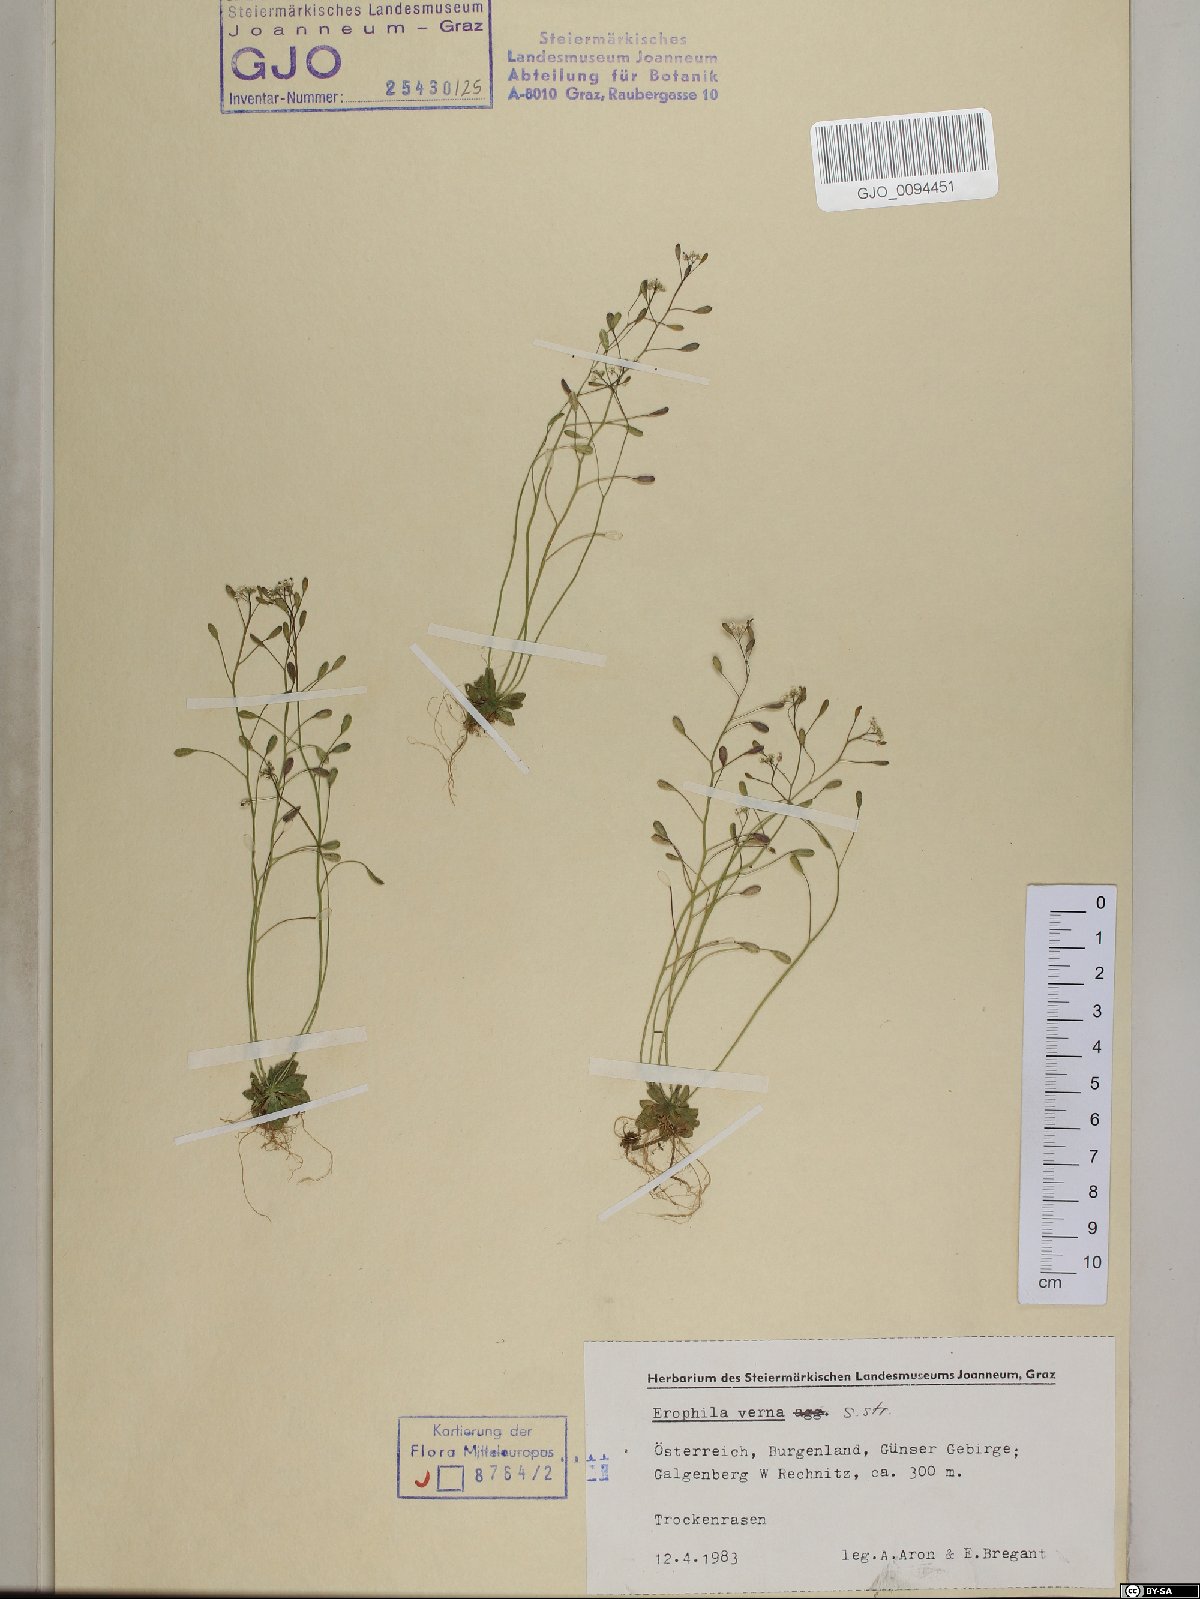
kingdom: Plantae
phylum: Tracheophyta
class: Magnoliopsida
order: Brassicales
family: Brassicaceae
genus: Draba
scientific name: Draba verna
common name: Spring draba
